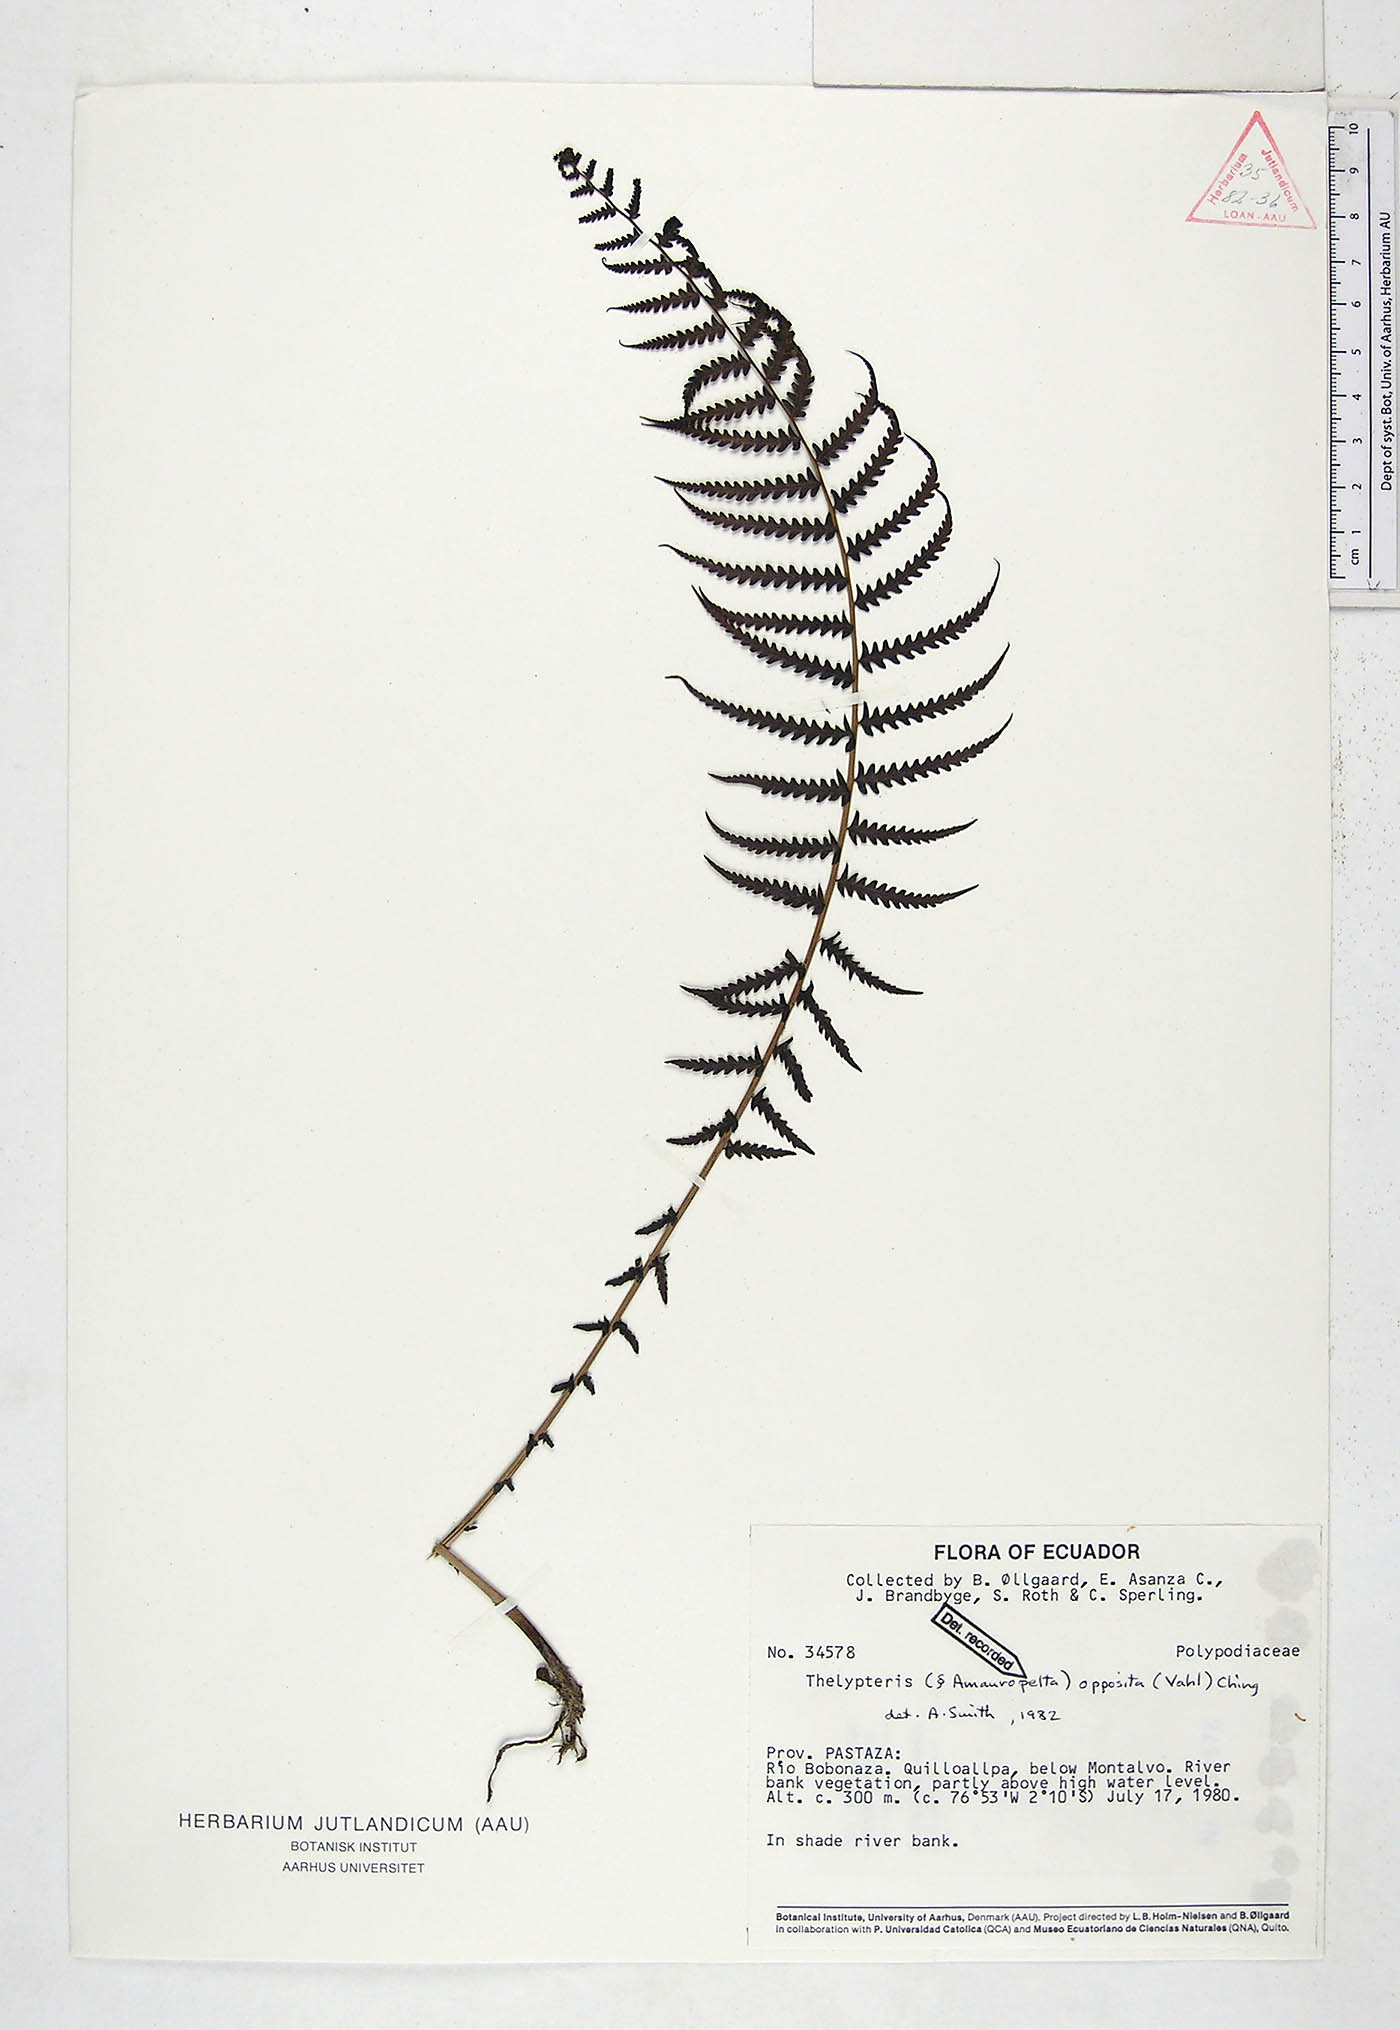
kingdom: Plantae
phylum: Tracheophyta
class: Polypodiopsida
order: Polypodiales
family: Thelypteridaceae
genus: Amauropelta
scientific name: Amauropelta opposita
